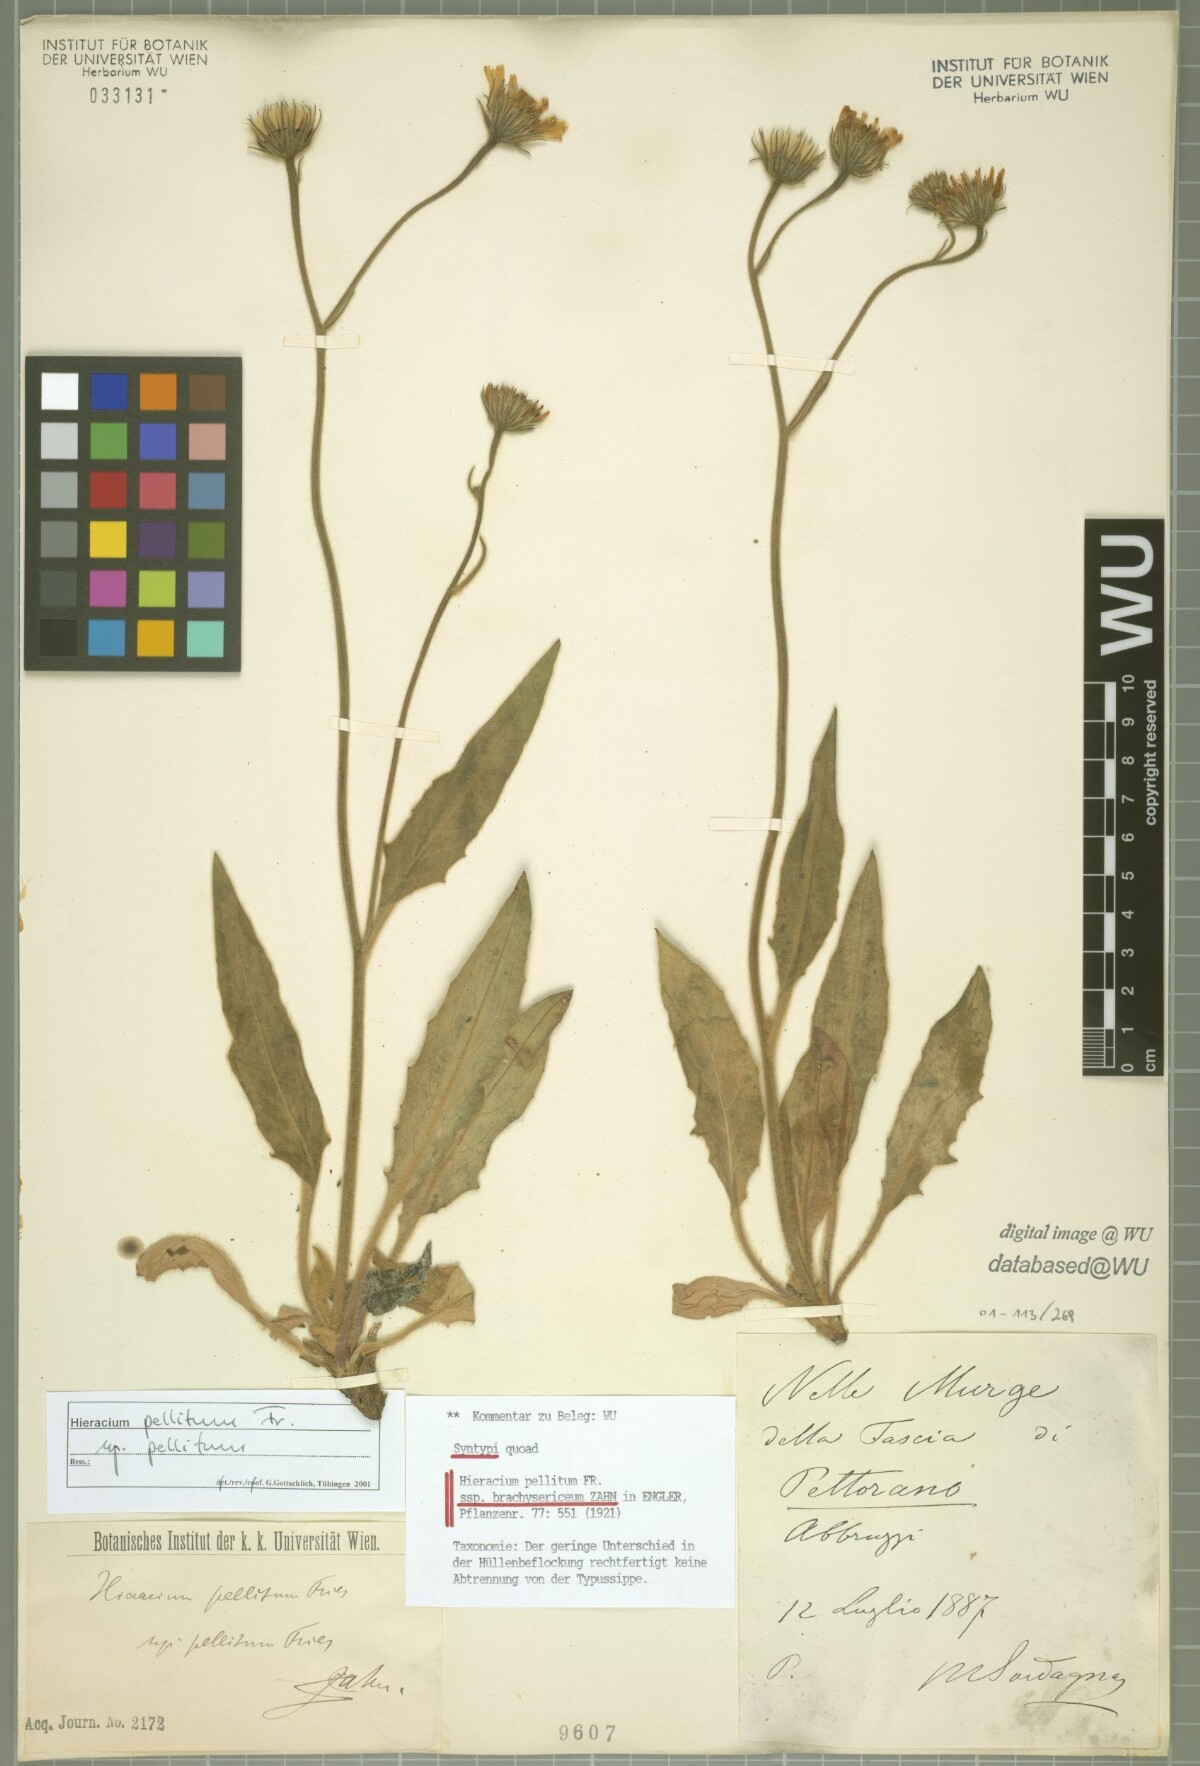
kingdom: Plantae
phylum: Tracheophyta
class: Magnoliopsida
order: Asterales
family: Asteraceae
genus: Hieracium
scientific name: Hieracium pellitum
